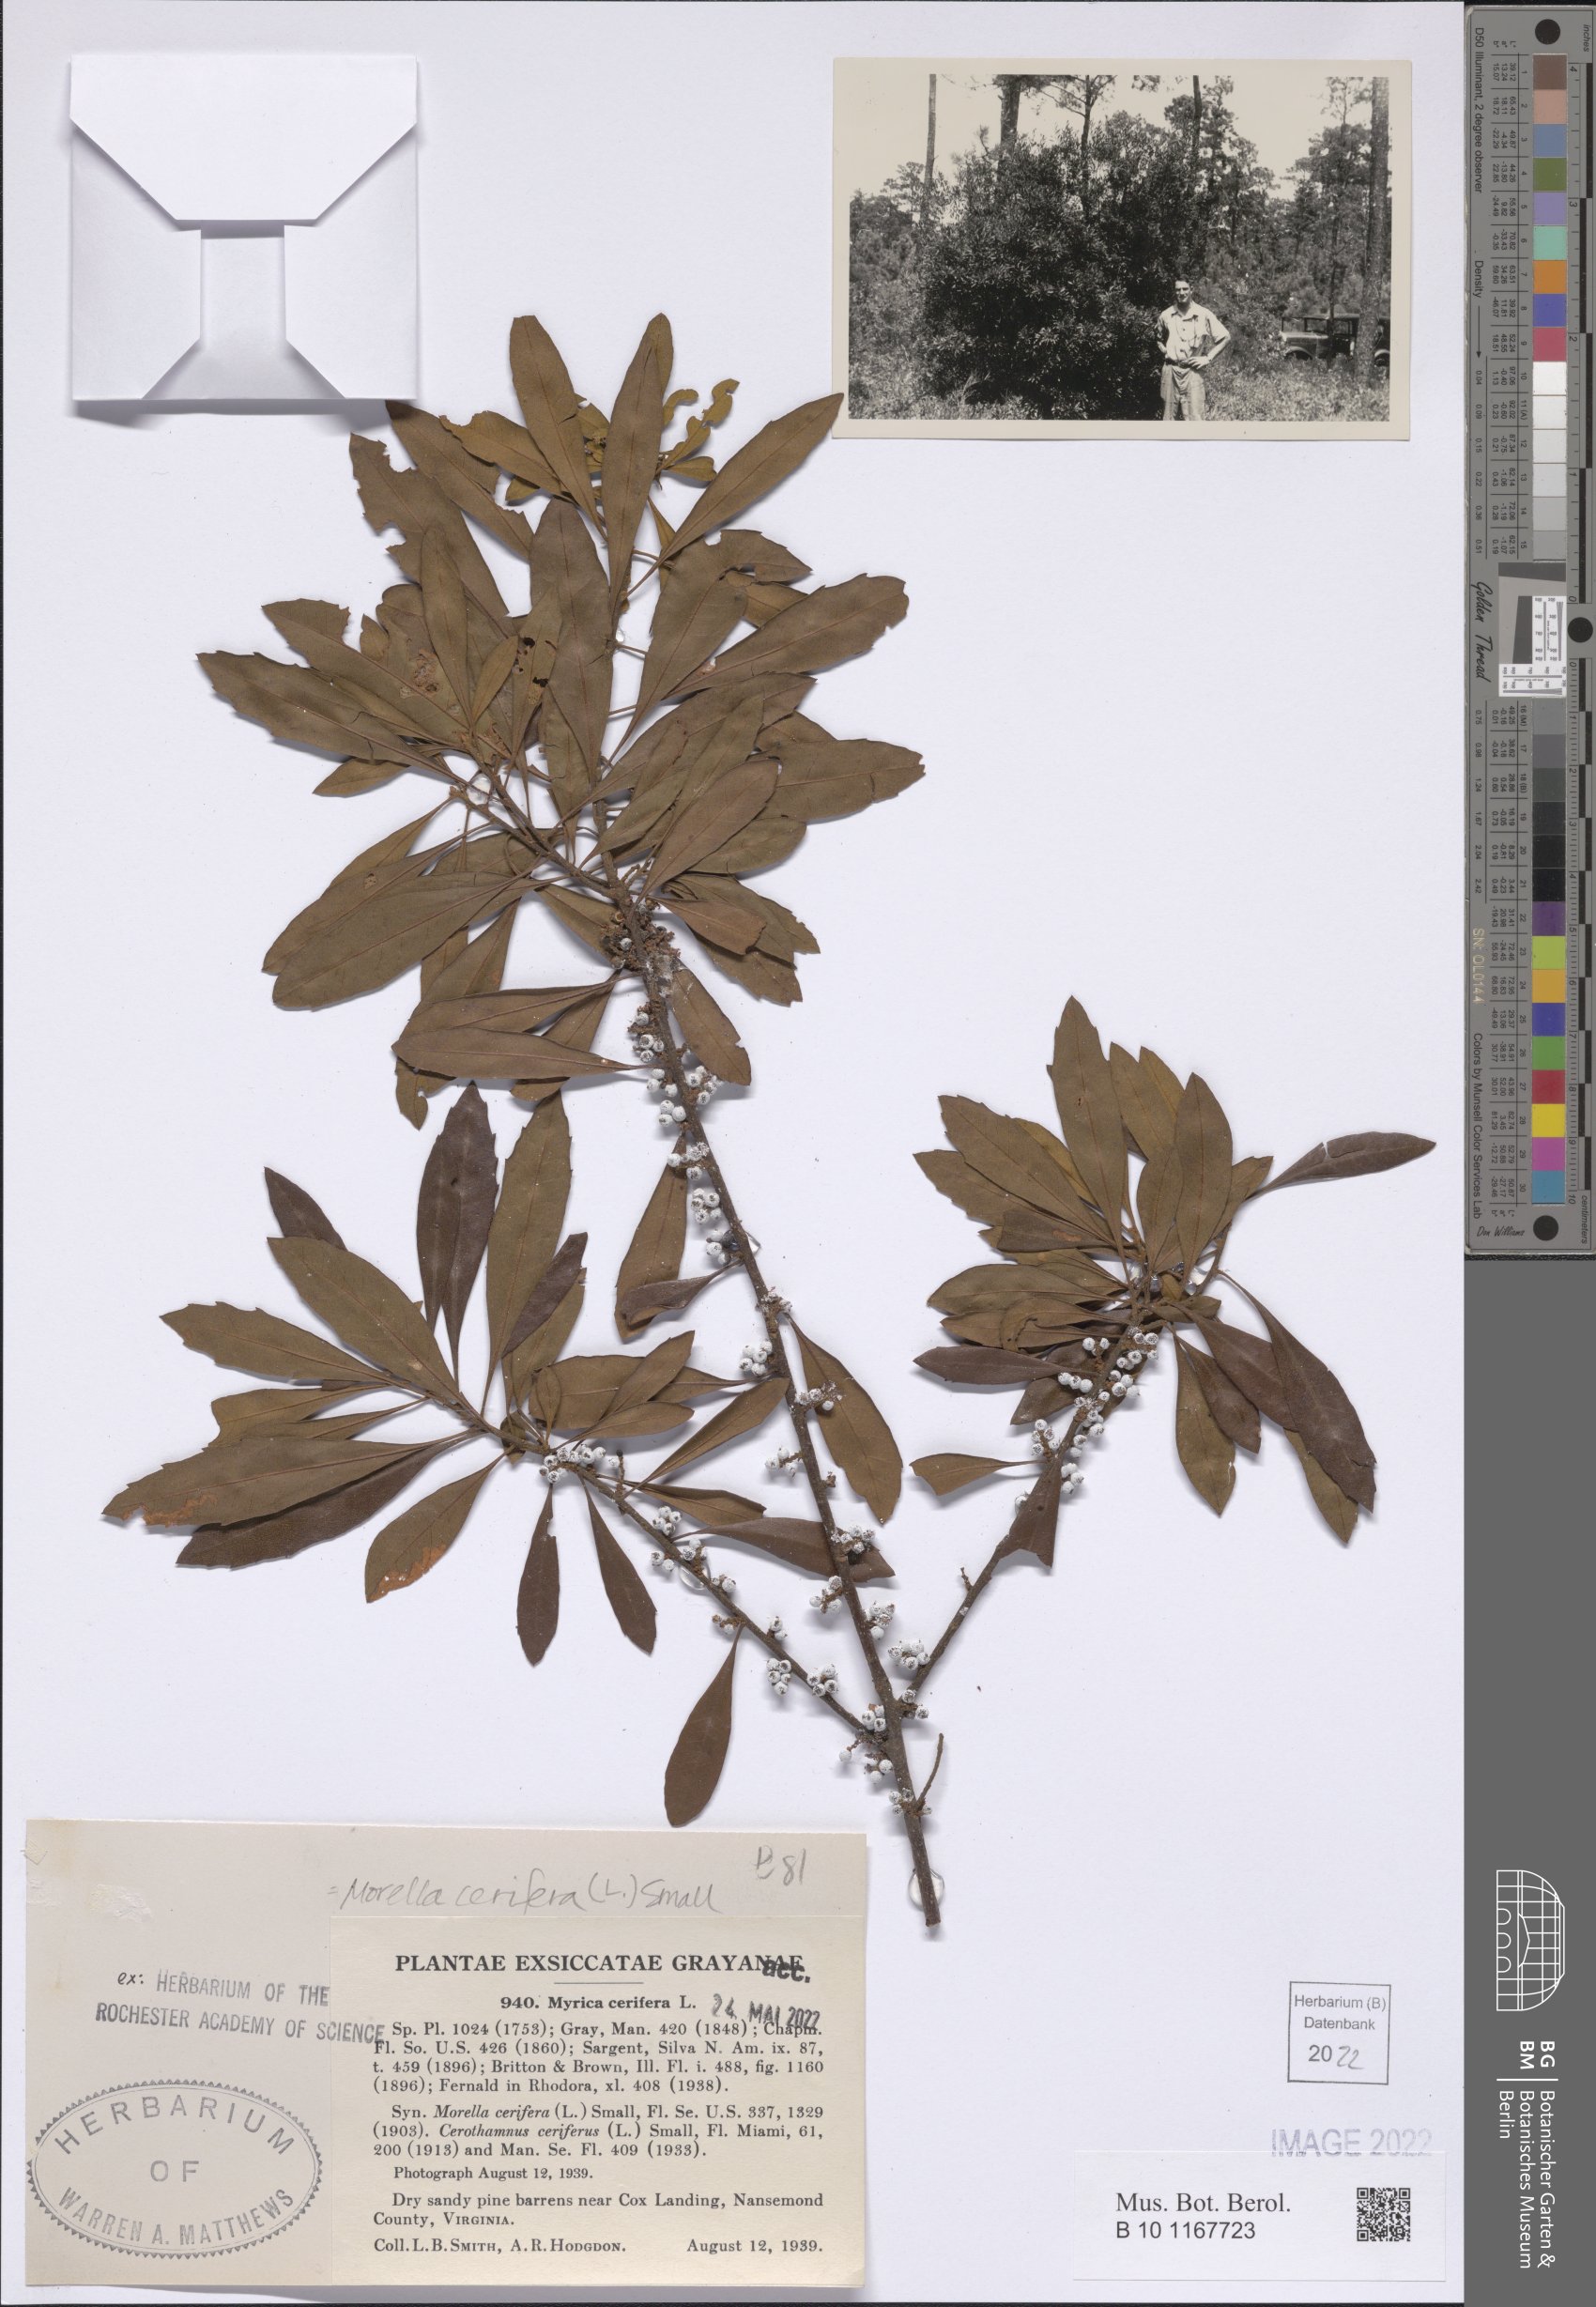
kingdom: Plantae
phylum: Tracheophyta
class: Magnoliopsida
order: Fagales
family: Myricaceae
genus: Morella
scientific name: Morella cerifera
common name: Wax myrtle
